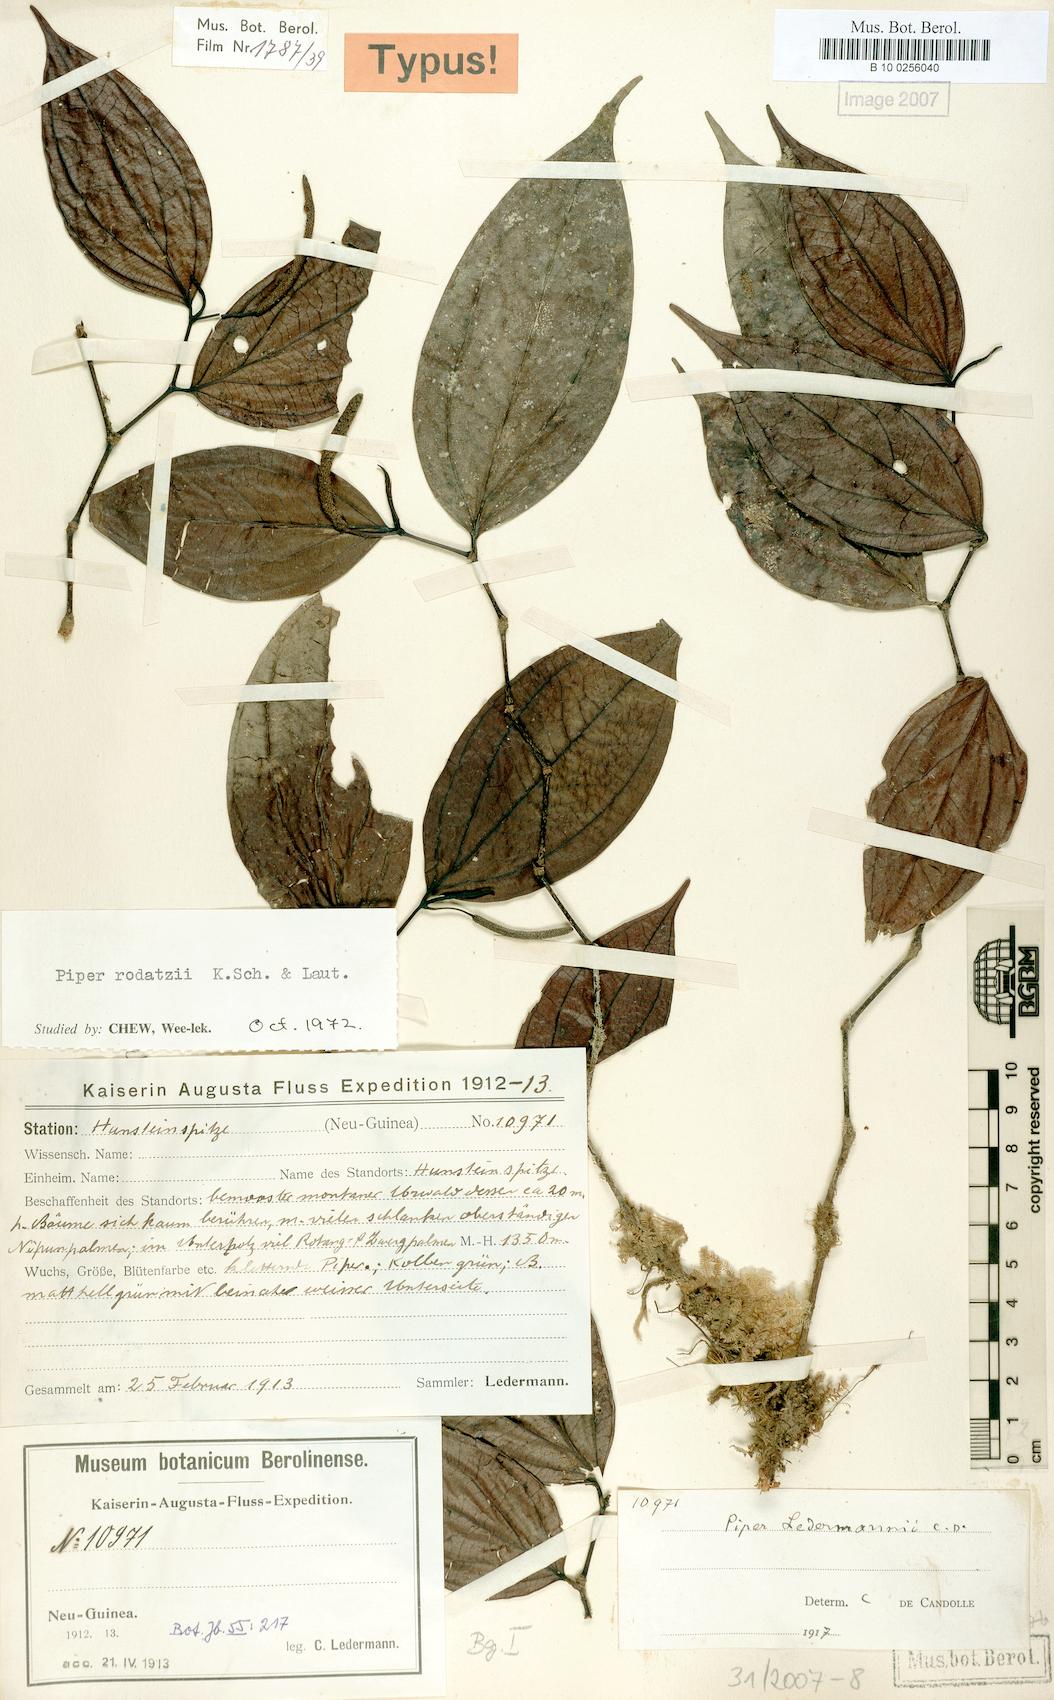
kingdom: Plantae
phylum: Tracheophyta
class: Magnoliopsida
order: Piperales
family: Piperaceae
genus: Piper
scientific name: Piper macropiper
